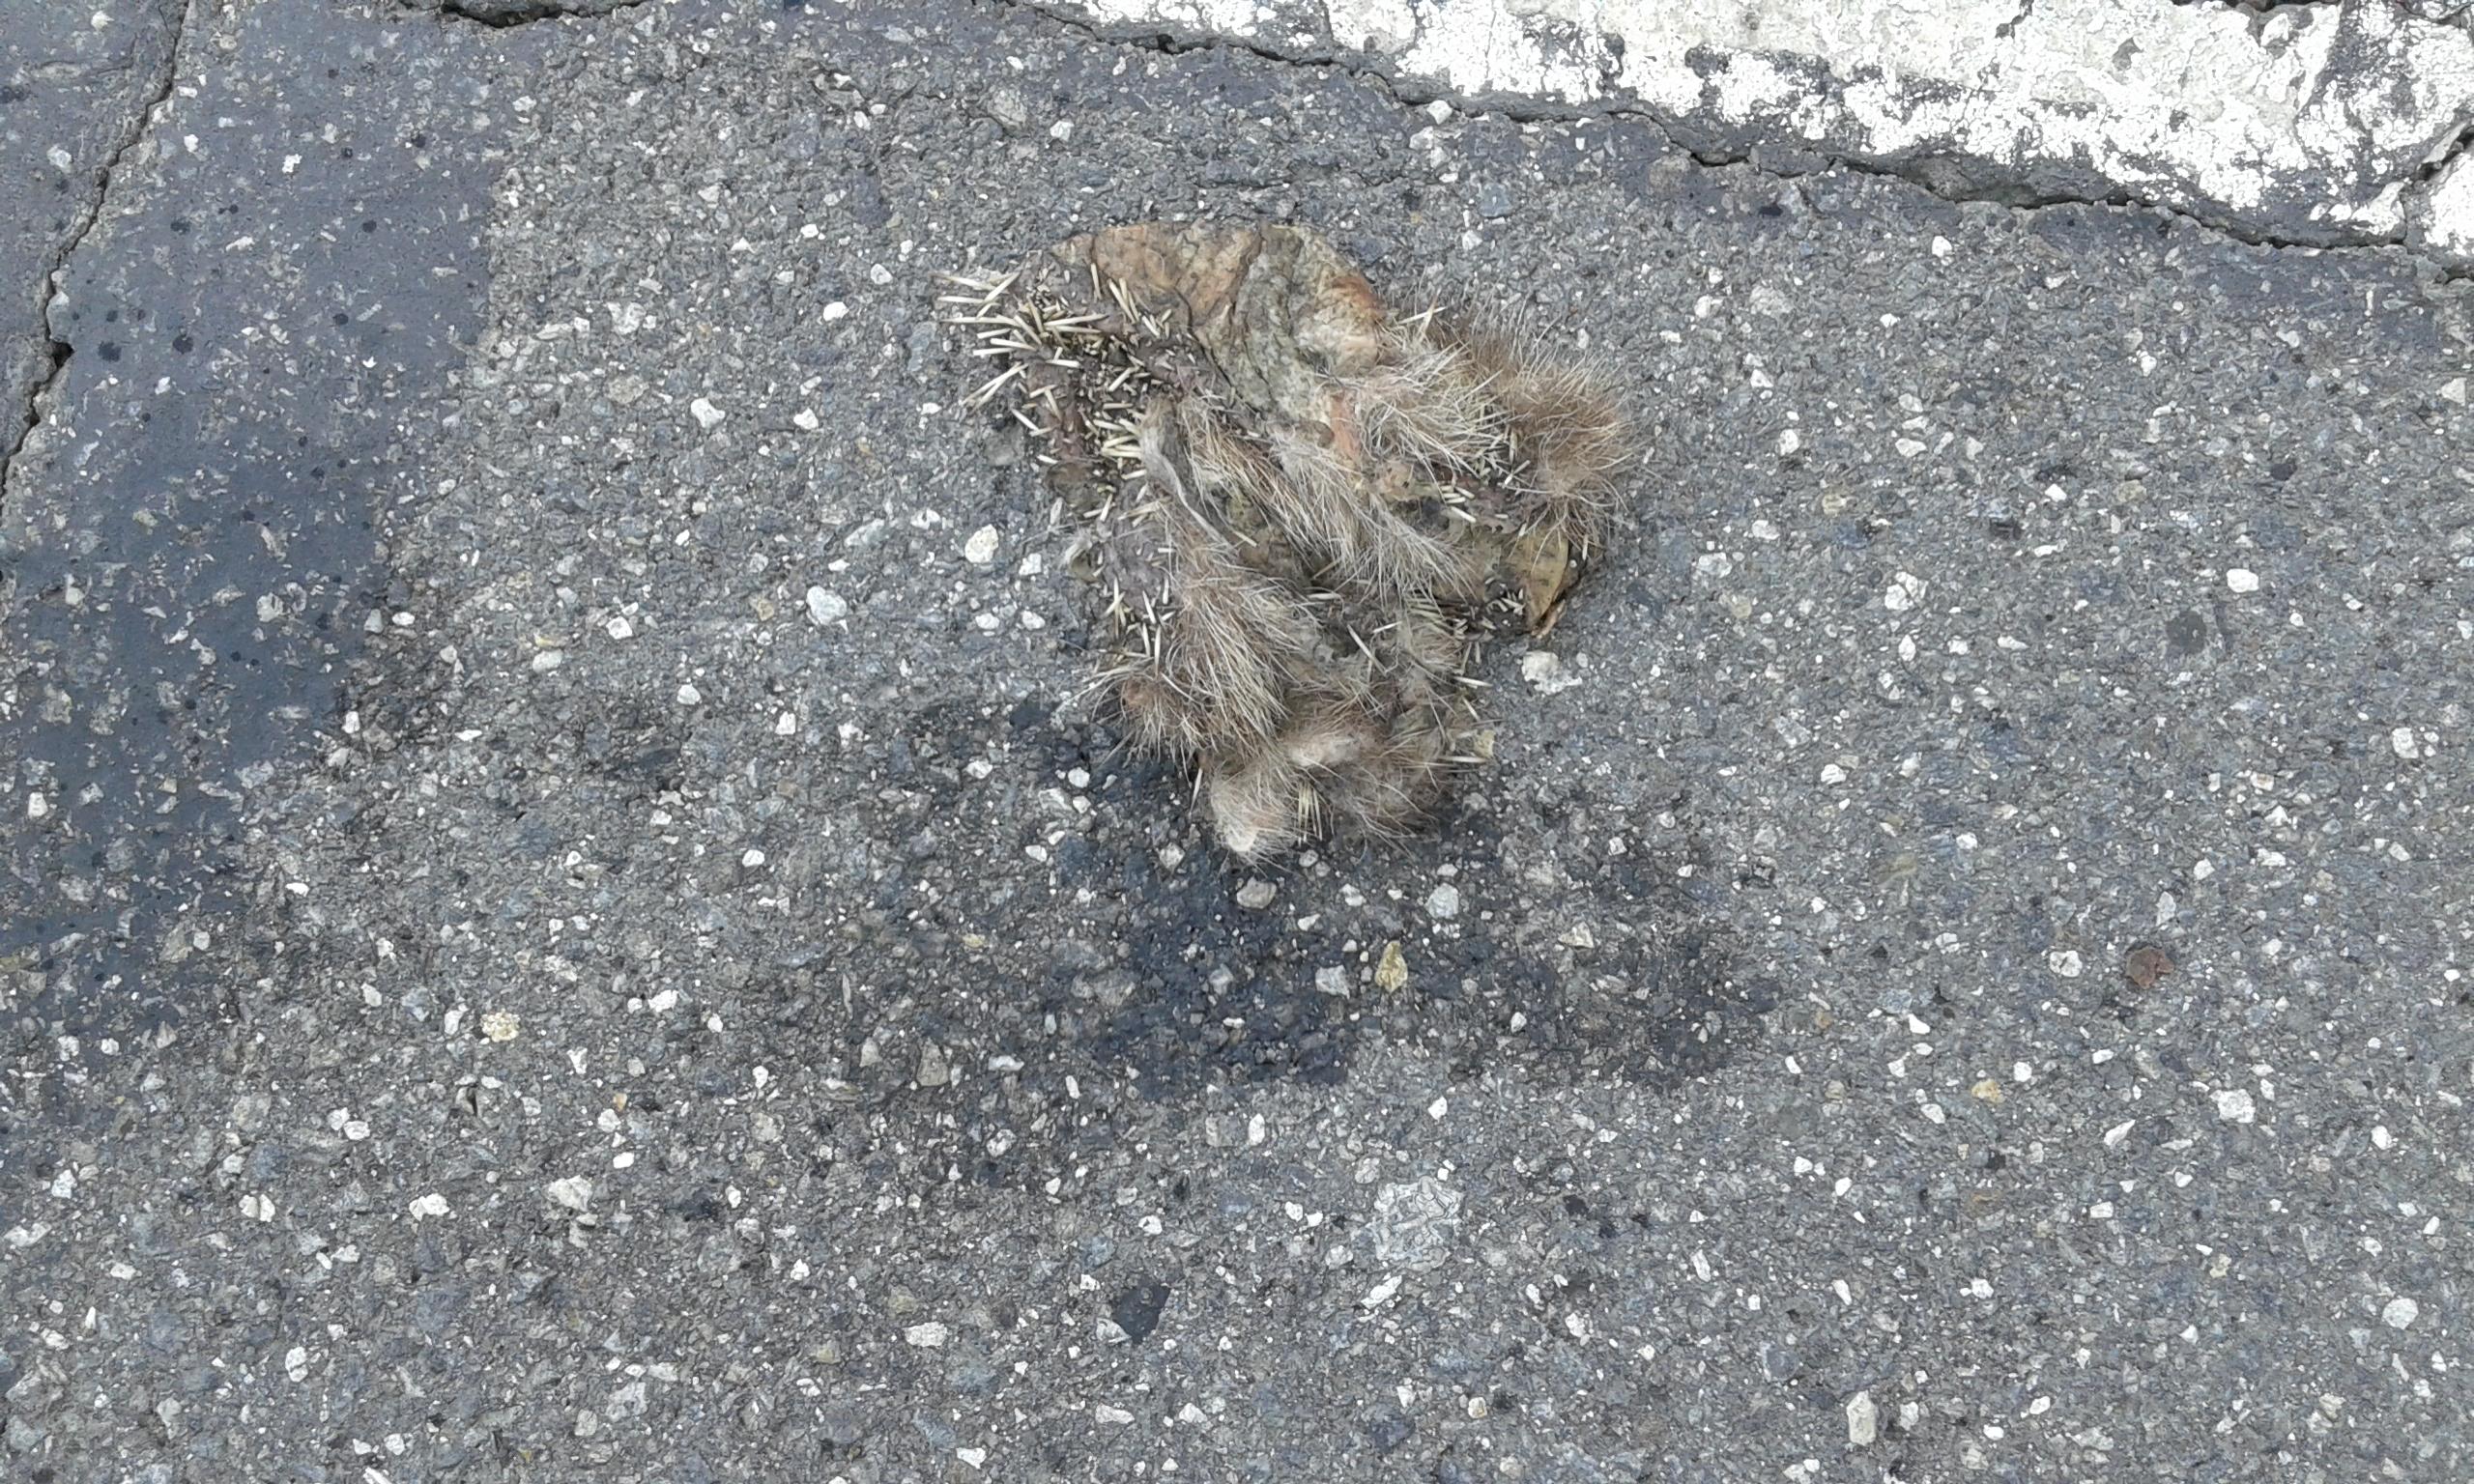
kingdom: Animalia
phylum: Chordata
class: Mammalia
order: Erinaceomorpha
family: Erinaceidae
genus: Erinaceus
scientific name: Erinaceus
